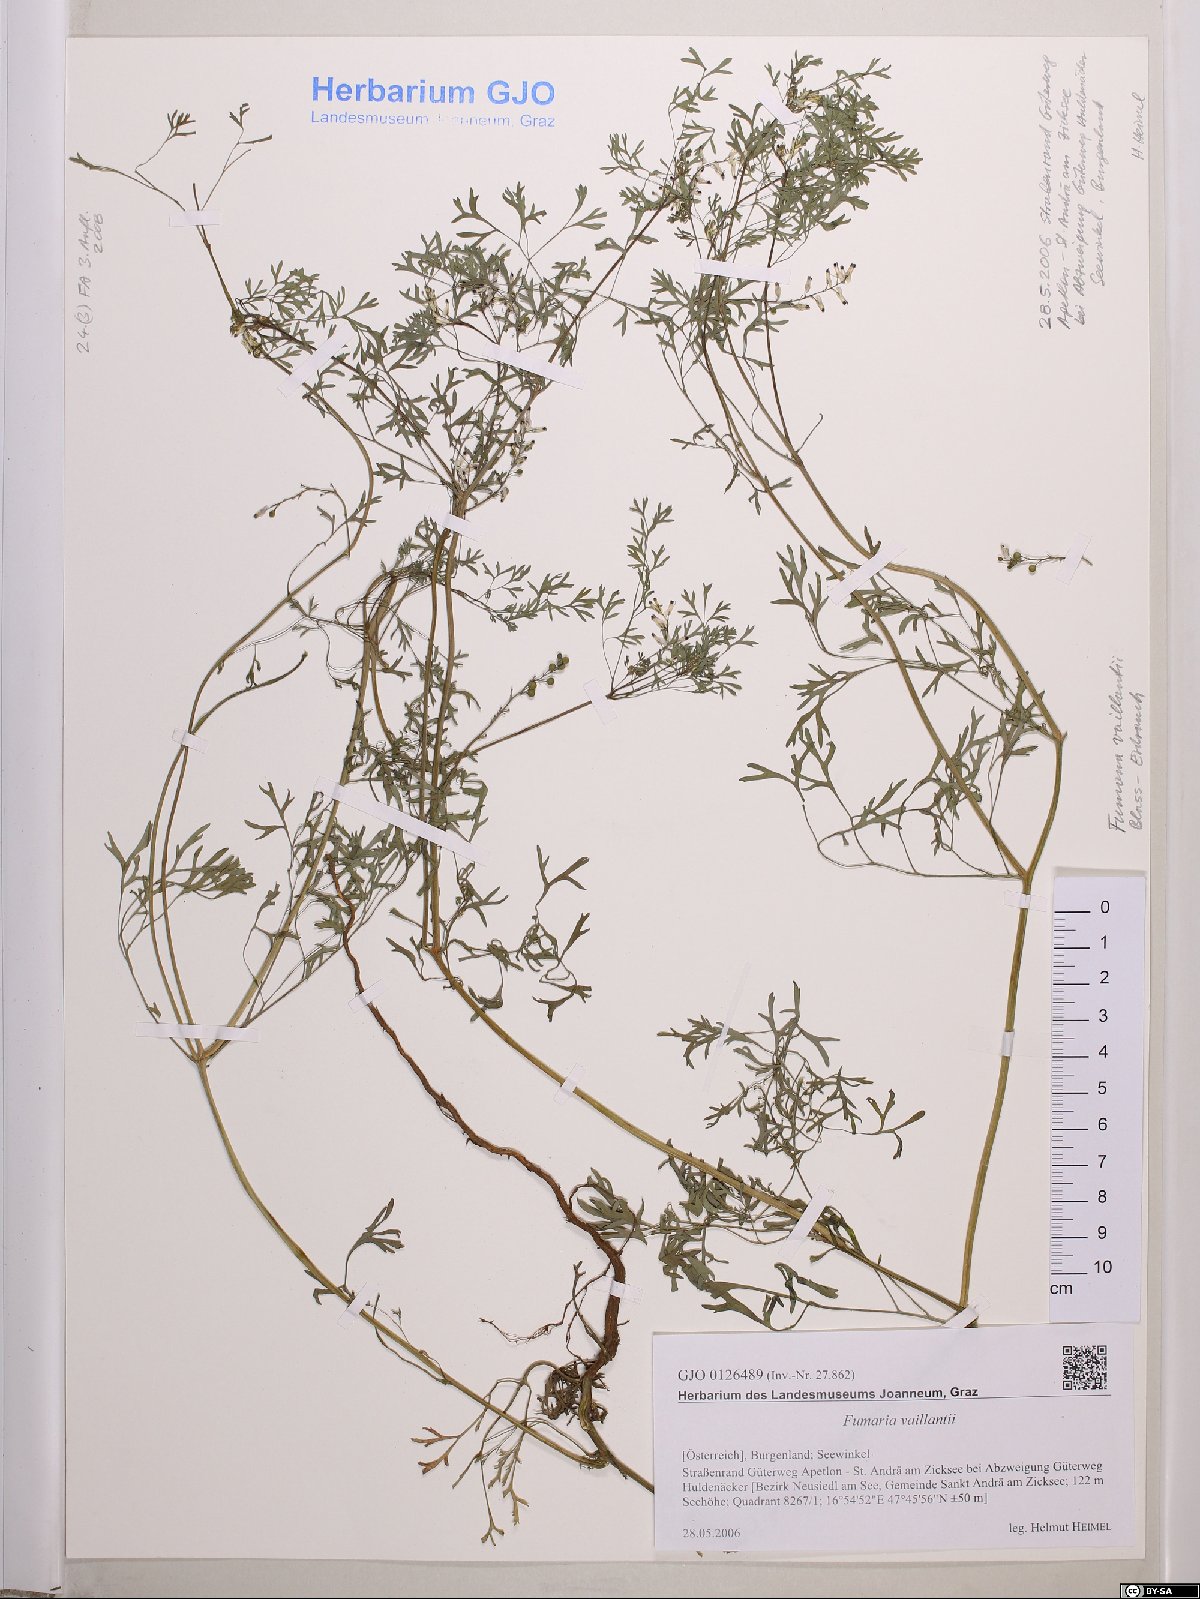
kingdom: Plantae
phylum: Tracheophyta
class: Magnoliopsida
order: Ranunculales
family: Papaveraceae
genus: Fumaria
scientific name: Fumaria vaillantii
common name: Few-flowered fumitory
